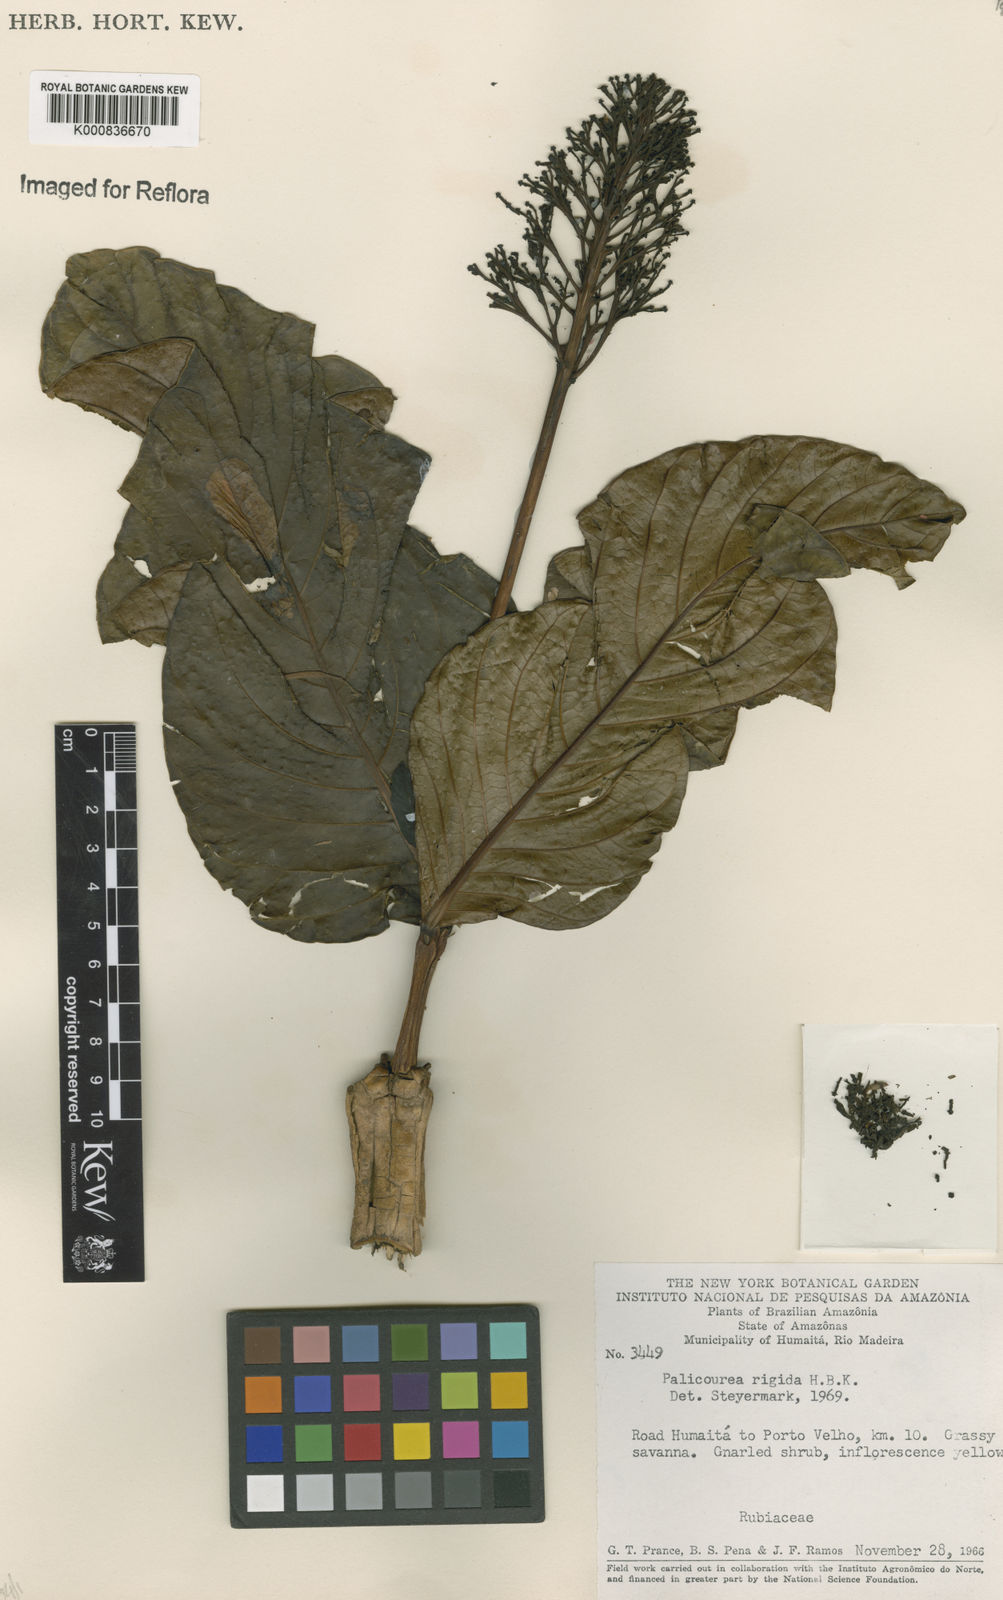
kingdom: Plantae
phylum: Tracheophyta
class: Magnoliopsida
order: Gentianales
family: Rubiaceae
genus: Palicourea
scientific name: Palicourea rigida
